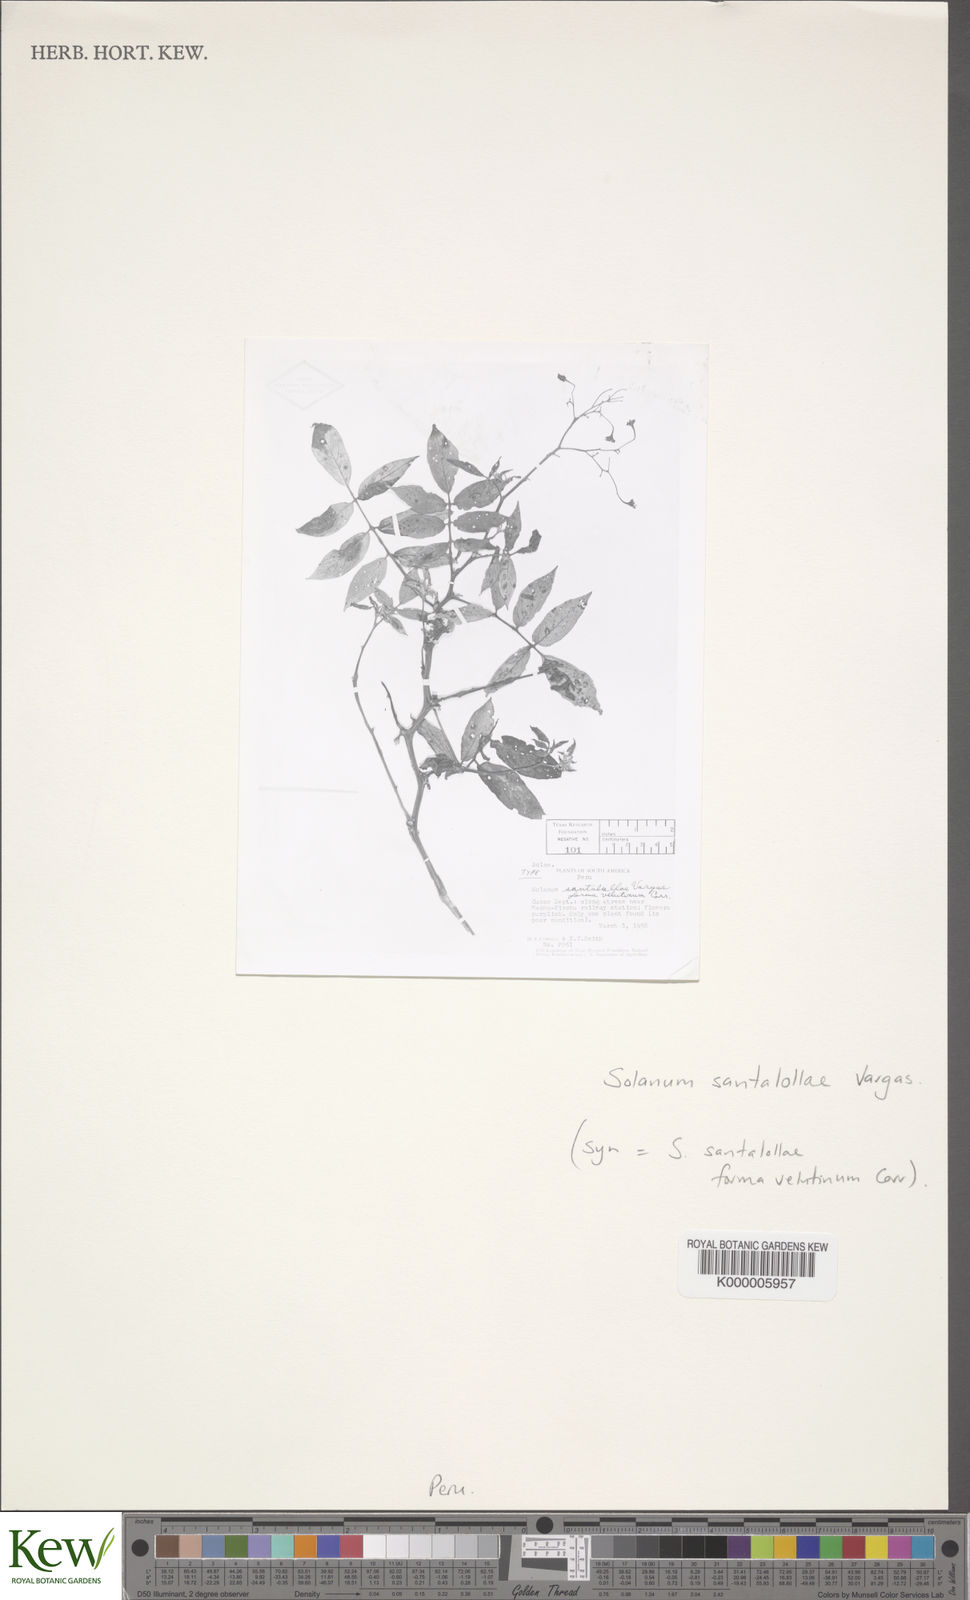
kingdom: Plantae
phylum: Tracheophyta
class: Magnoliopsida
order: Solanales
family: Solanaceae
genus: Solanum
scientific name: Solanum laxissimum
